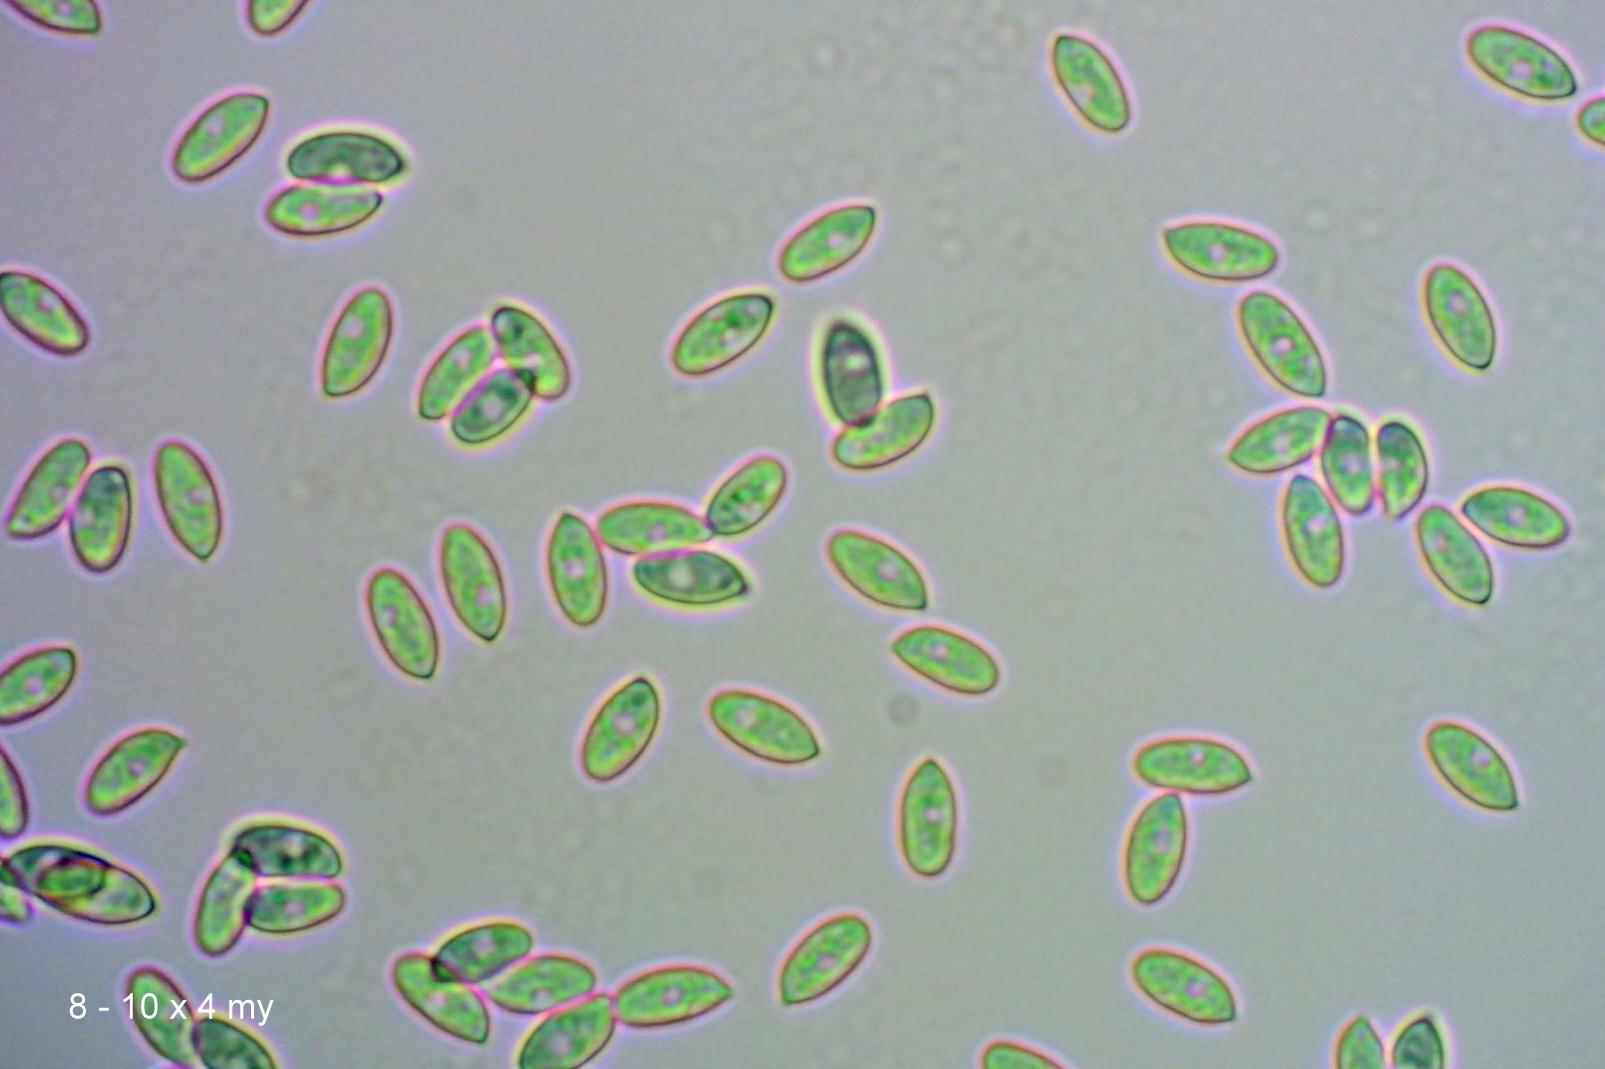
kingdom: Fungi
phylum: Basidiomycota
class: Agaricomycetes
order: Agaricales
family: Macrocystidiaceae
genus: Macrocystidia
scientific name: Macrocystidia cucumis
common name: agurkehat
